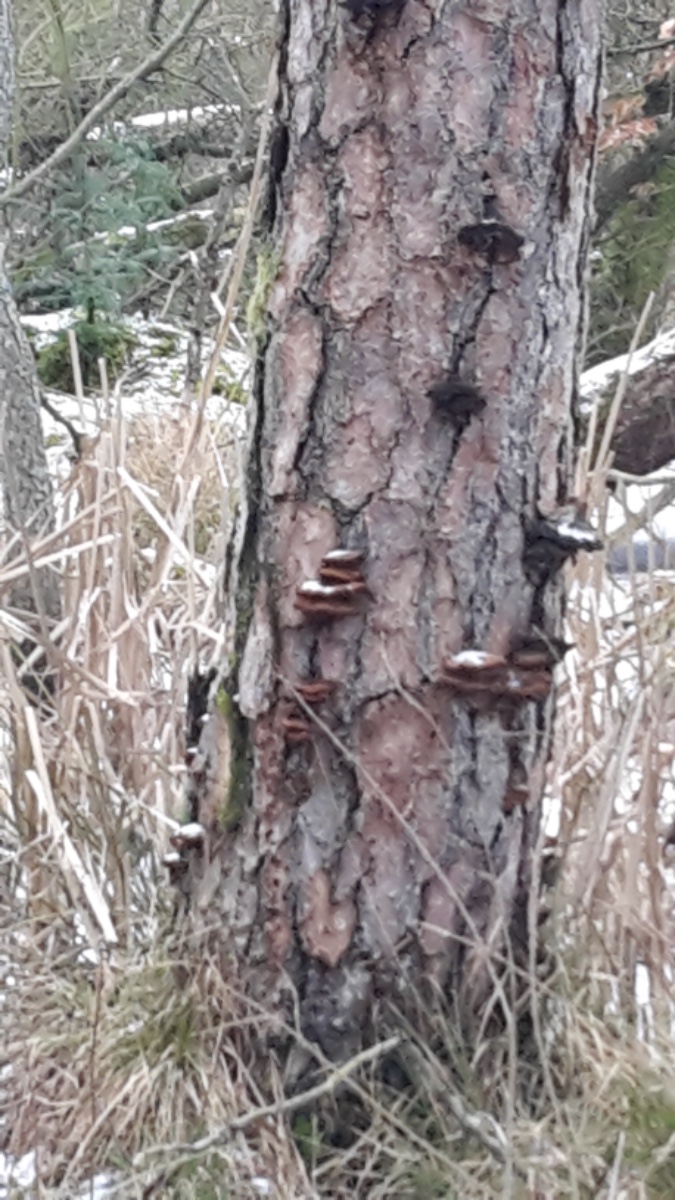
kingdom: Fungi
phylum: Basidiomycota
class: Agaricomycetes
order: Polyporales
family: Ischnodermataceae
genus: Ischnoderma
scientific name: Ischnoderma benzoinum
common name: gran-tjæreporesvamp
